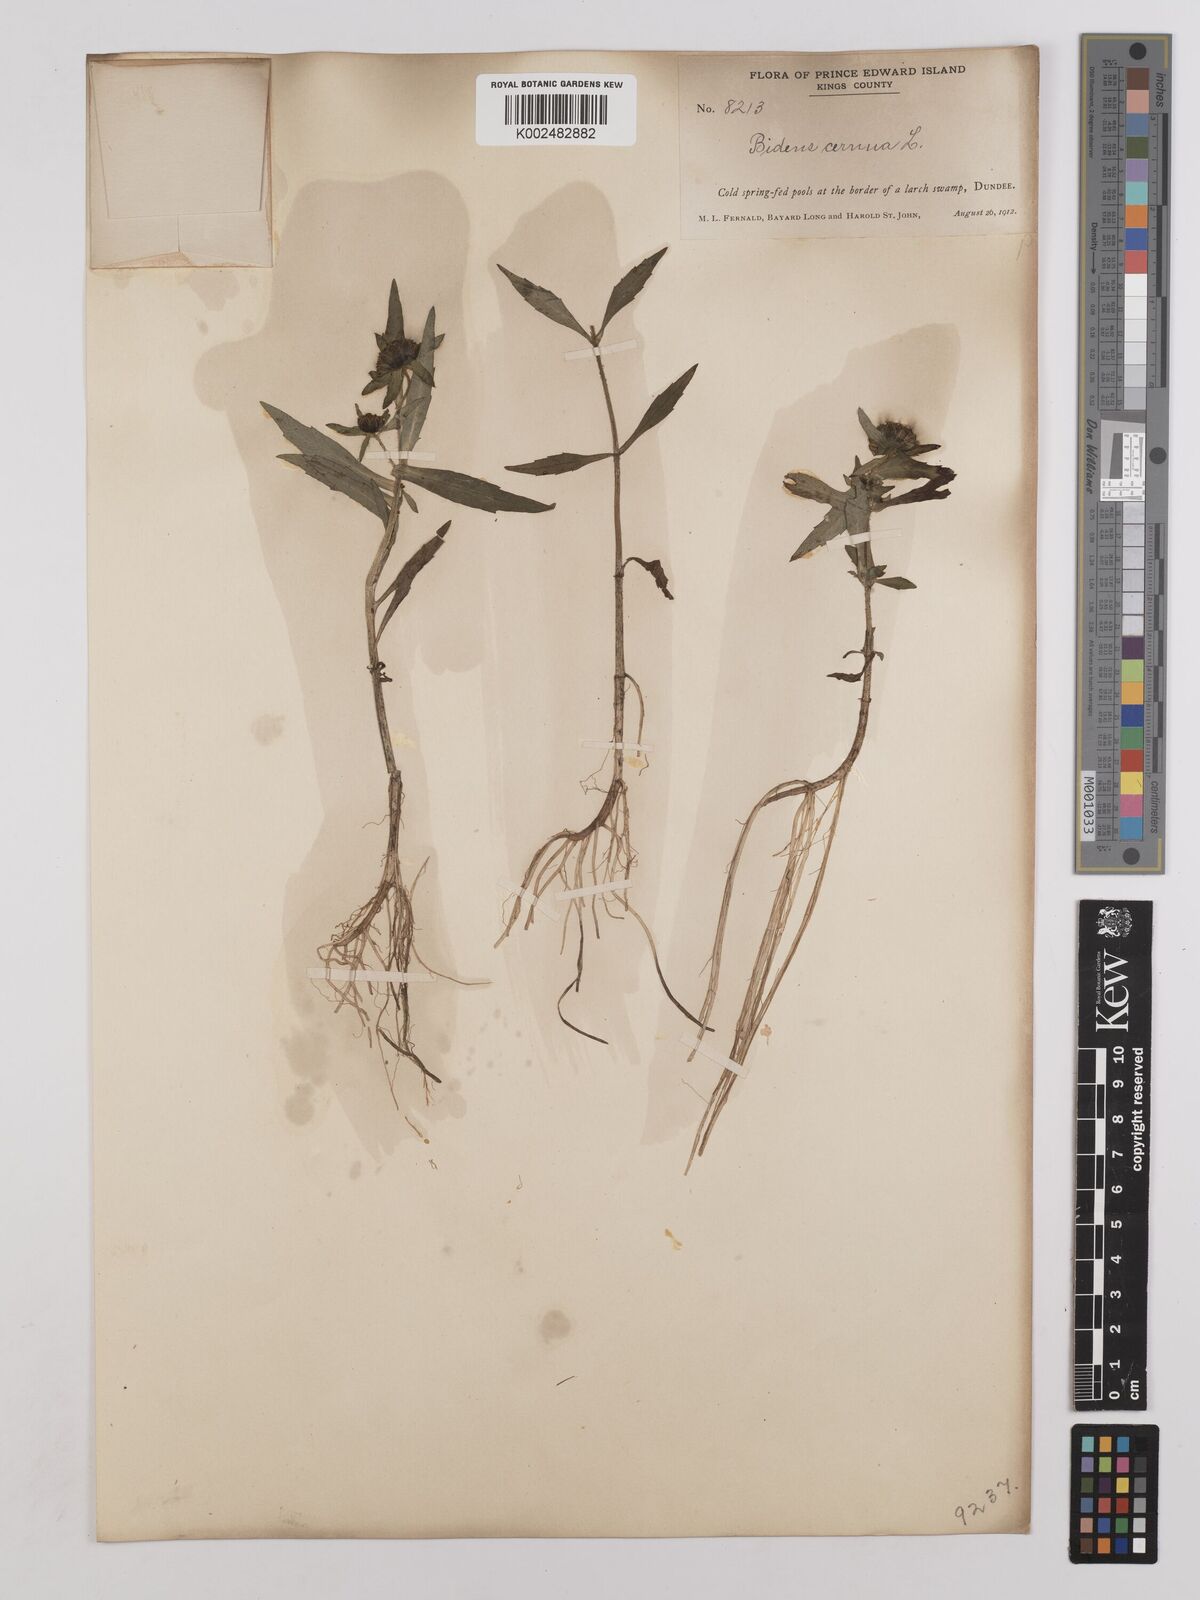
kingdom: Plantae
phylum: Tracheophyta
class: Magnoliopsida
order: Asterales
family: Asteraceae
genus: Bidens
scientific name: Bidens cernua
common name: Nodding bur-marigold
